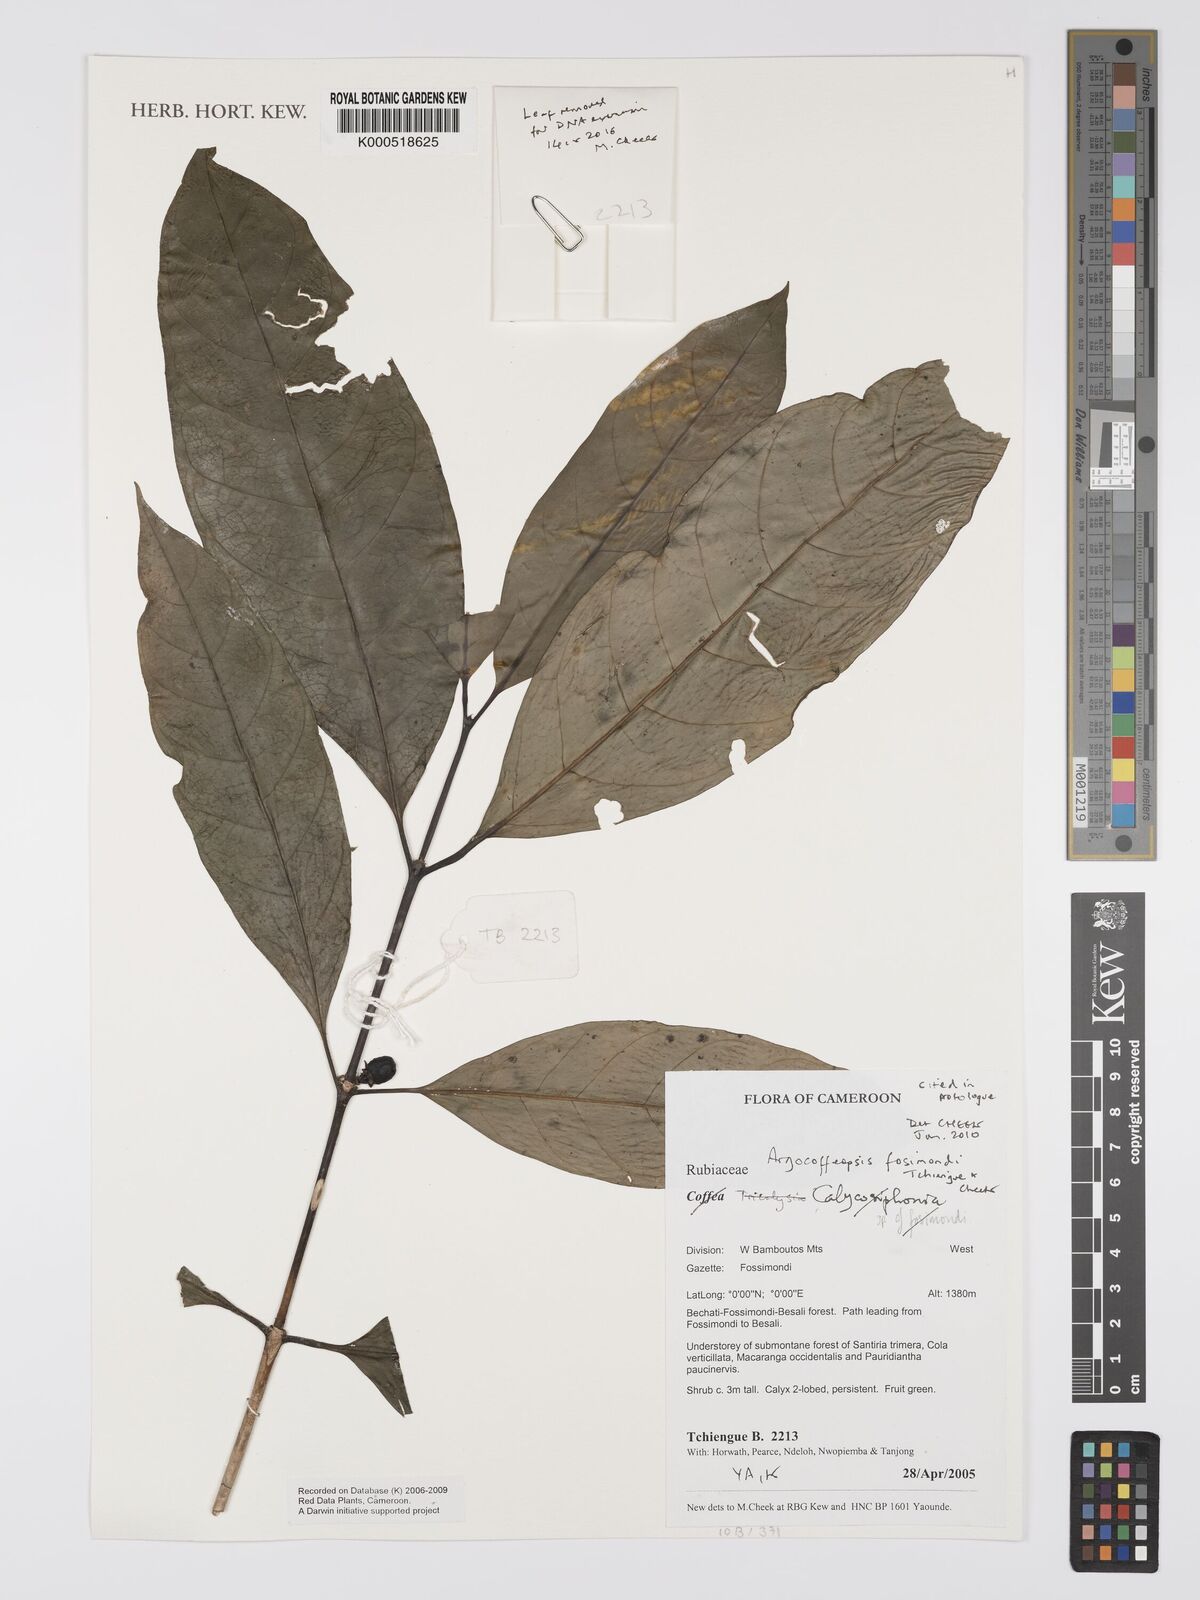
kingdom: Plantae
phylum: Tracheophyta
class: Magnoliopsida
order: Gentianales
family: Rubiaceae
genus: Argocoffeopsis
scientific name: Argocoffeopsis
